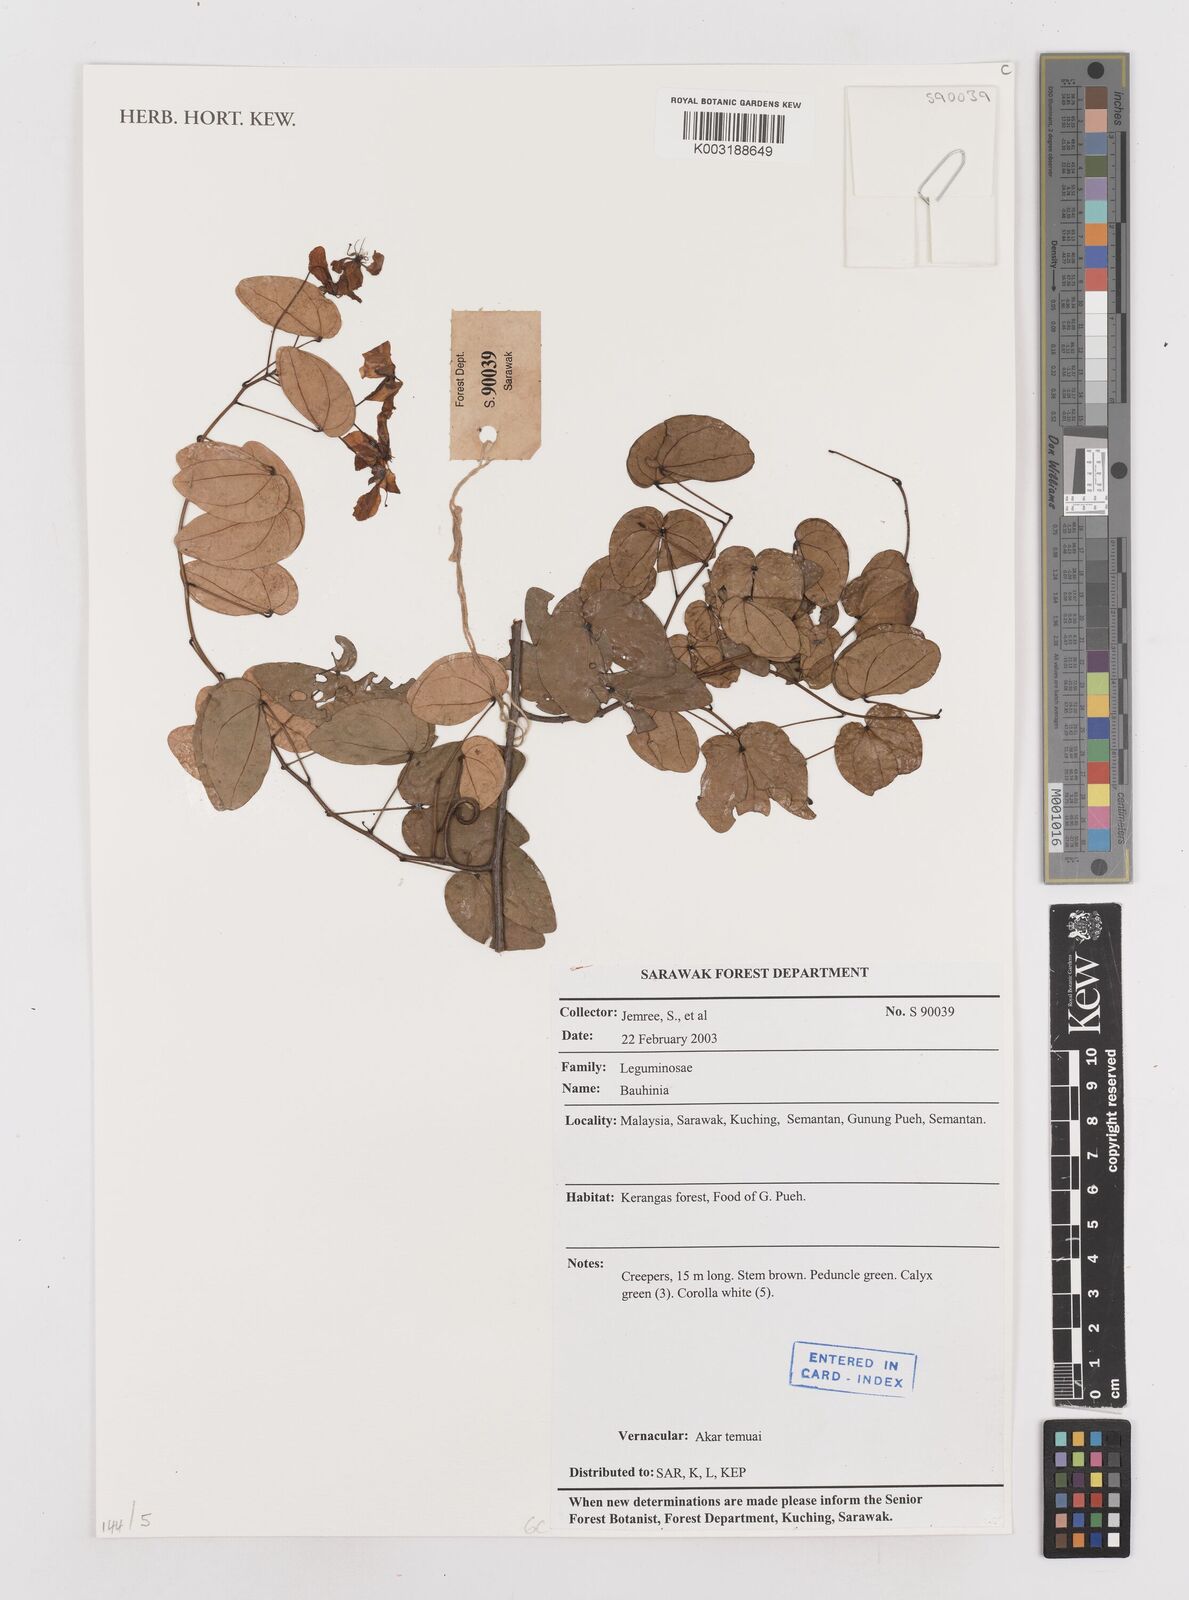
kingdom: Plantae
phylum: Tracheophyta
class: Magnoliopsida
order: Fabales
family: Fabaceae
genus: Bauhinia
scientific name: Bauhinia
